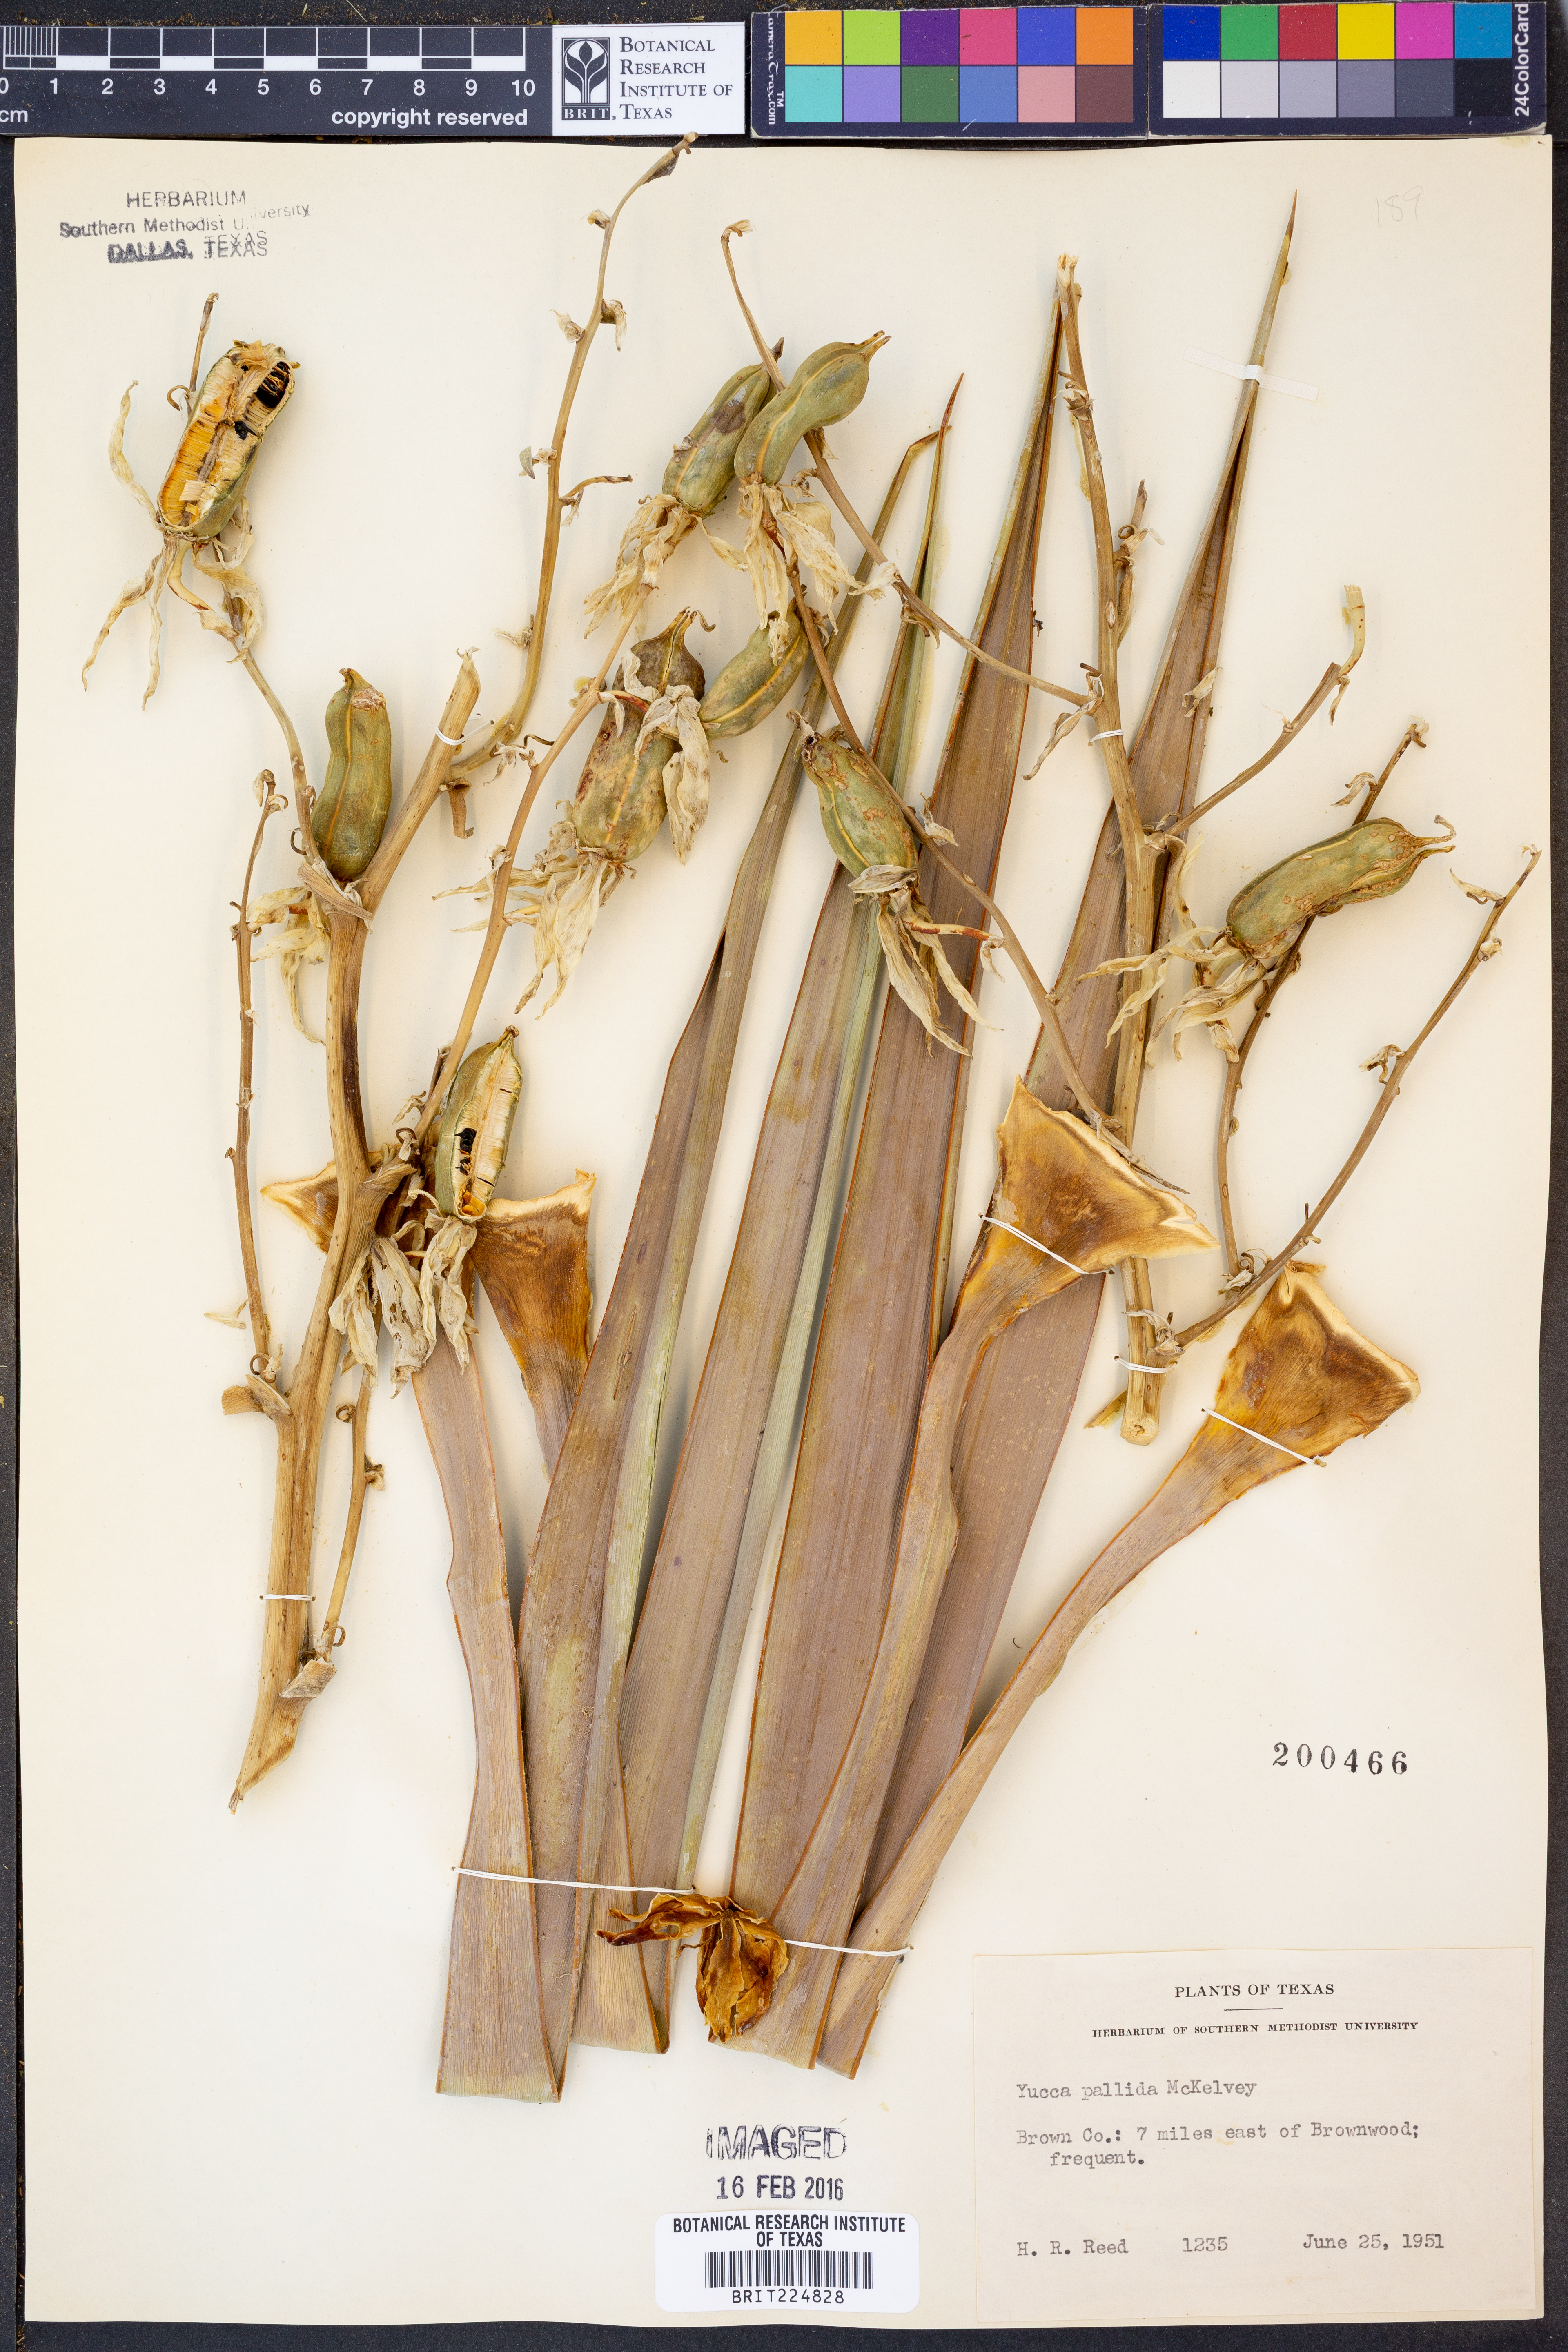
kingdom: Plantae
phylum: Tracheophyta
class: Liliopsida
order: Asparagales
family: Asparagaceae
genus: Yucca
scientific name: Yucca pallida
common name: Pale leaf yucca
